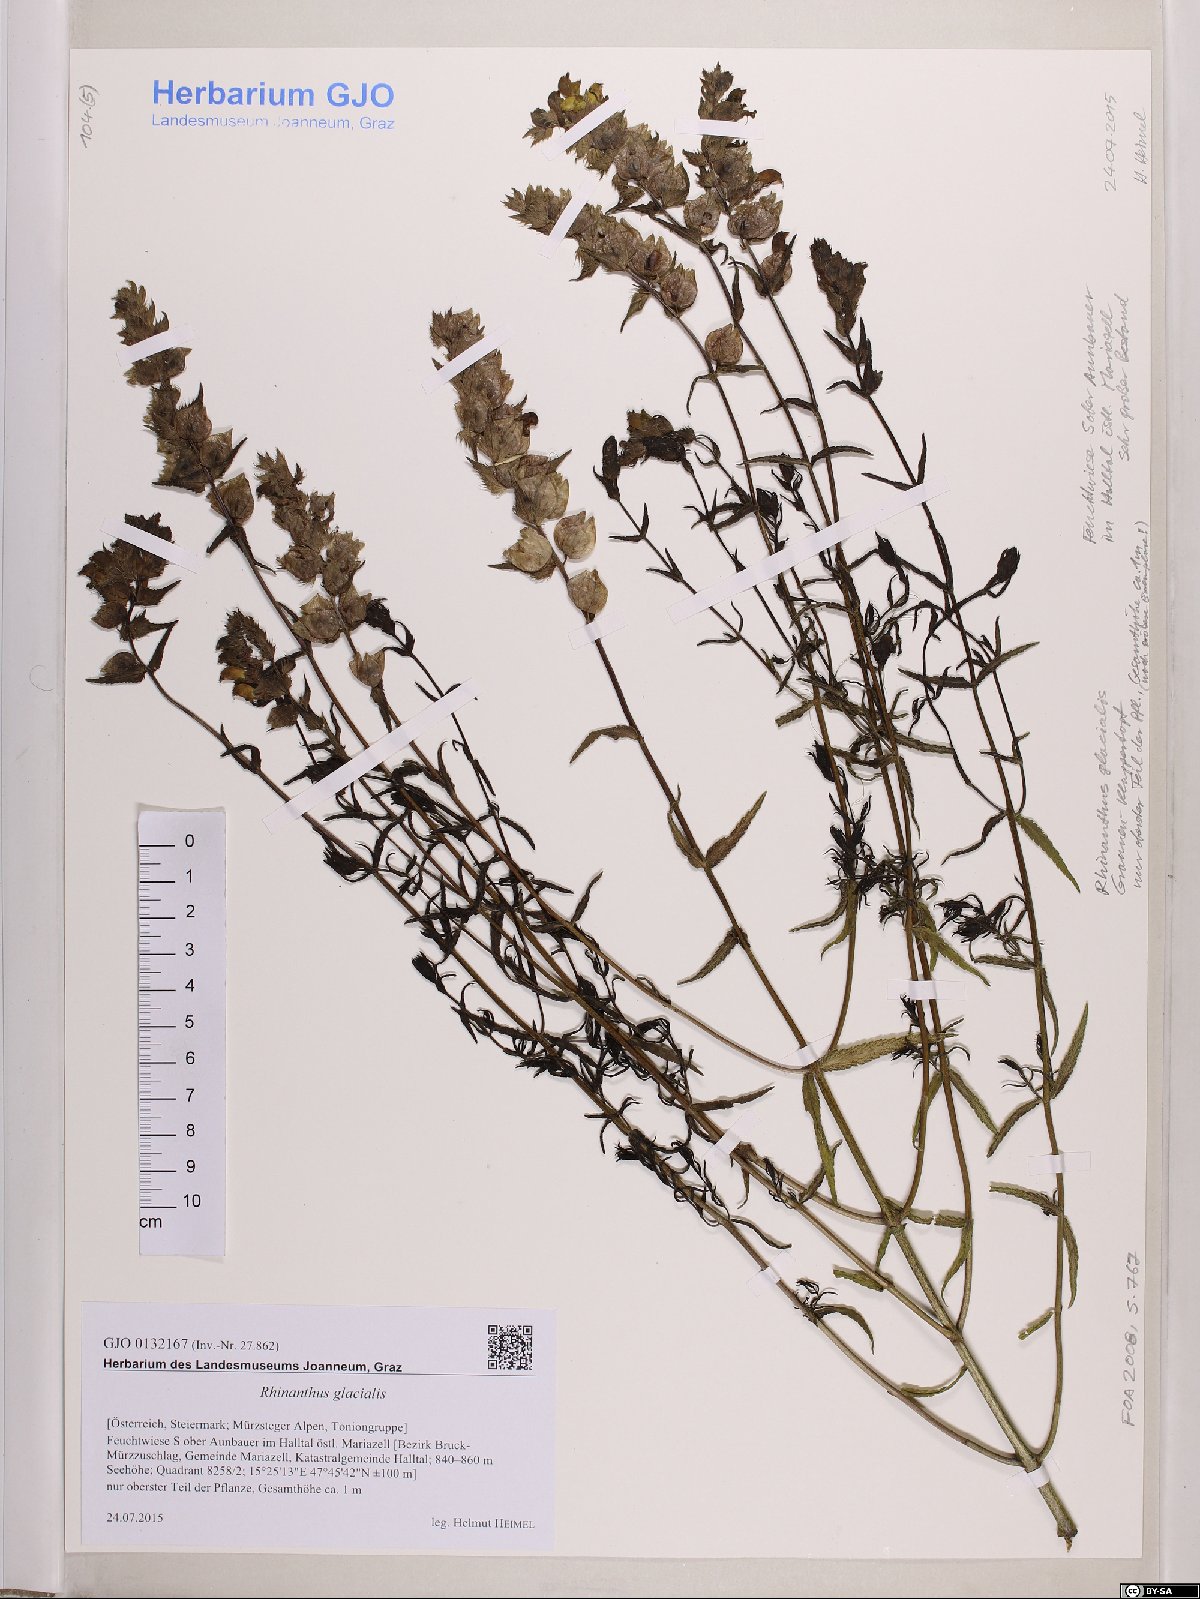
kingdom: Plantae
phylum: Tracheophyta
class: Magnoliopsida
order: Lamiales
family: Orobanchaceae
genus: Rhinanthus
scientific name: Rhinanthus glacialis
